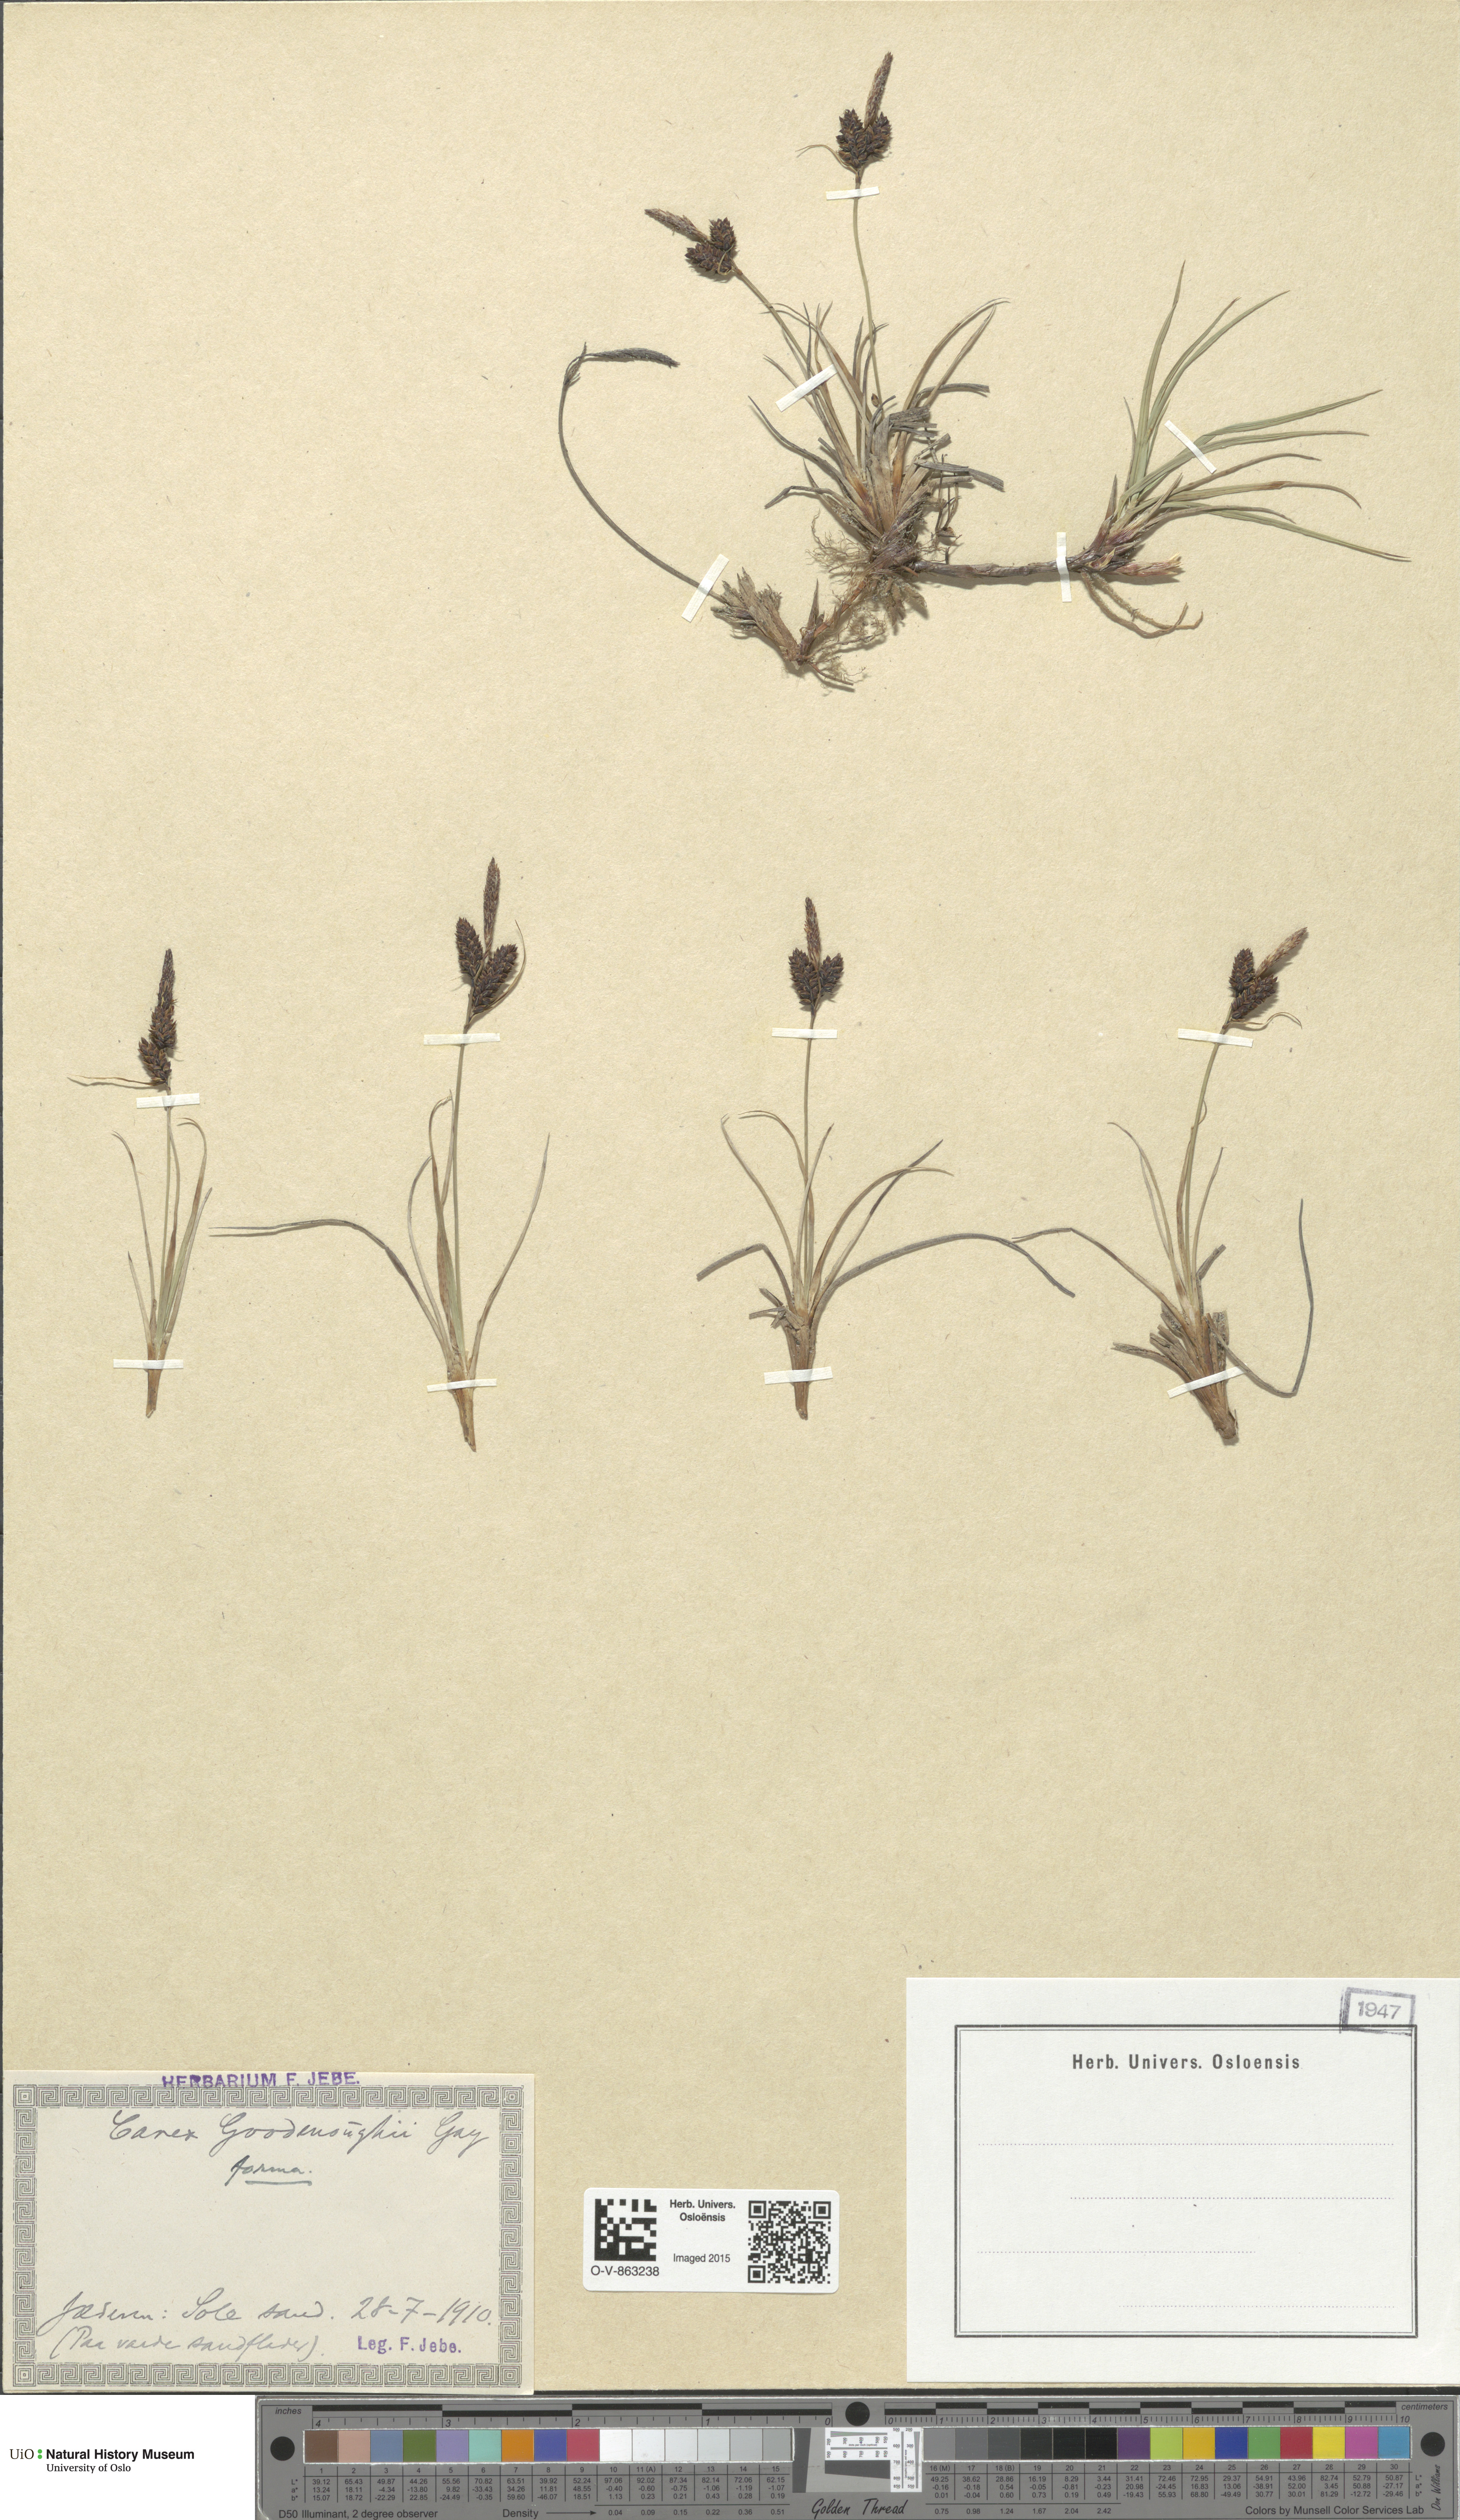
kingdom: Plantae
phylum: Tracheophyta
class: Liliopsida
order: Poales
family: Cyperaceae
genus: Carex
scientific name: Carex nigra
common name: Common sedge
